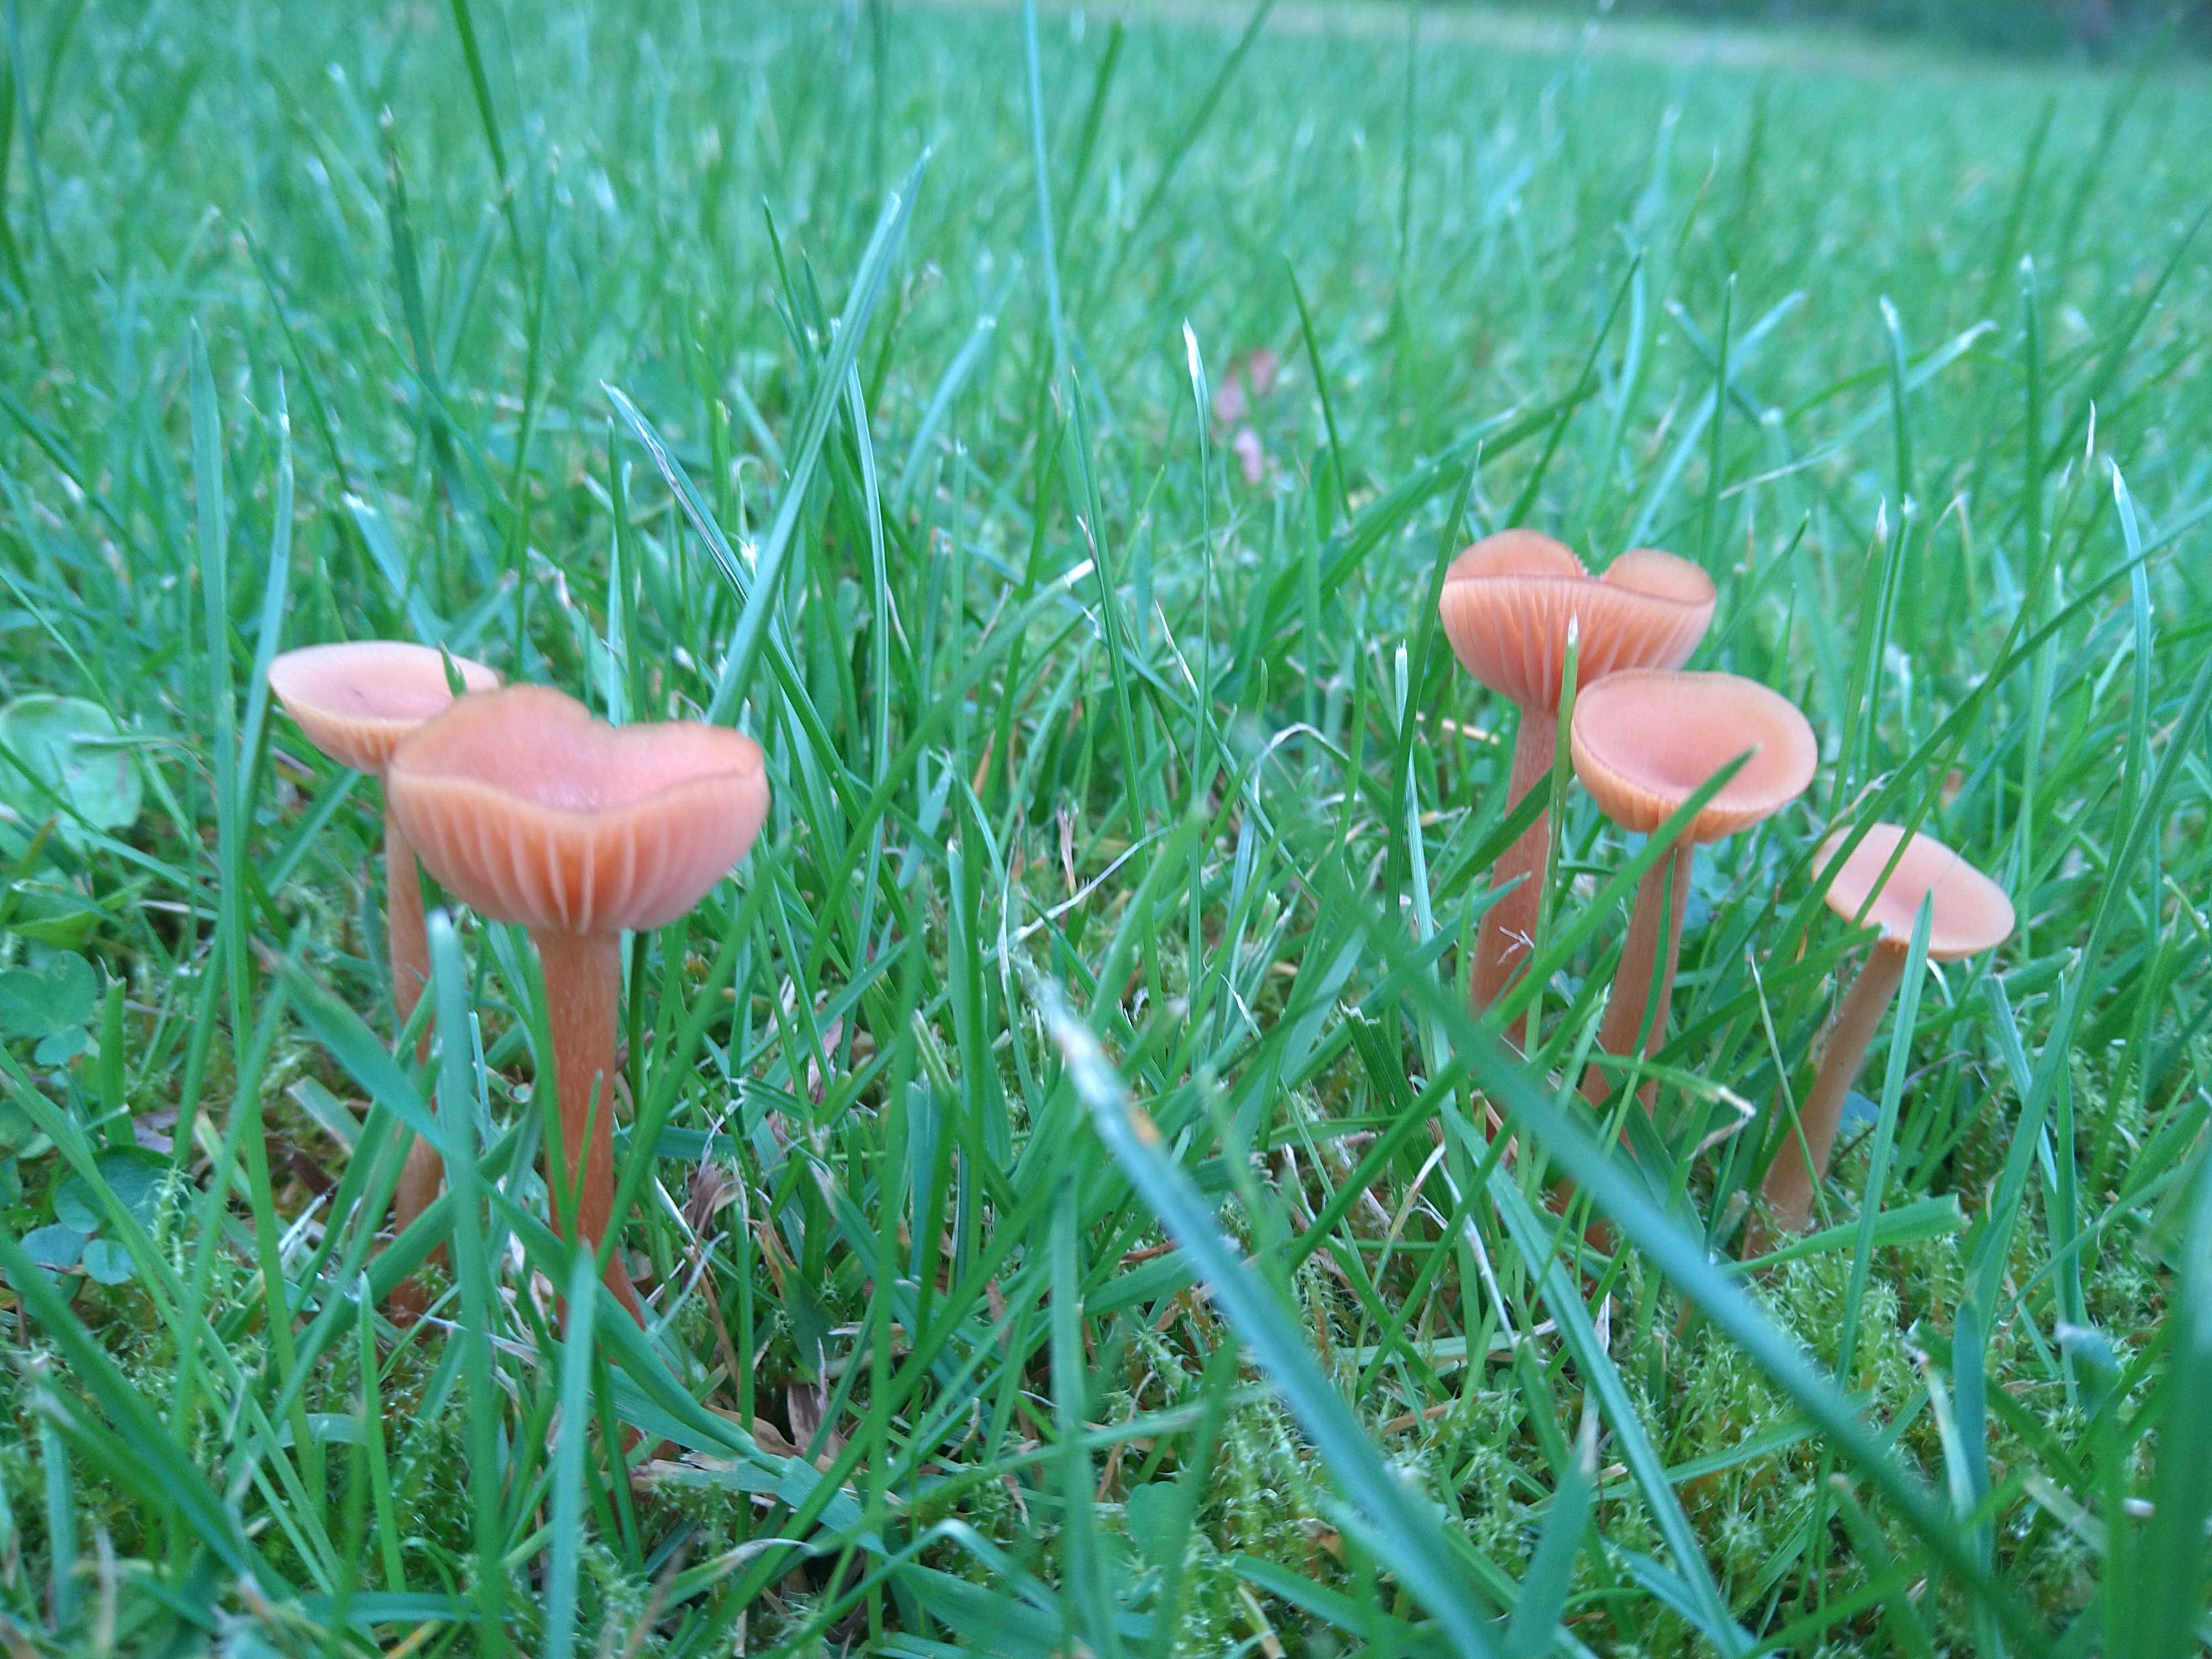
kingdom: Fungi
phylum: Basidiomycota
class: Agaricomycetes
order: Agaricales
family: Hydnangiaceae
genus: Laccaria
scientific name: Laccaria laccata
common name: rød ametysthat
